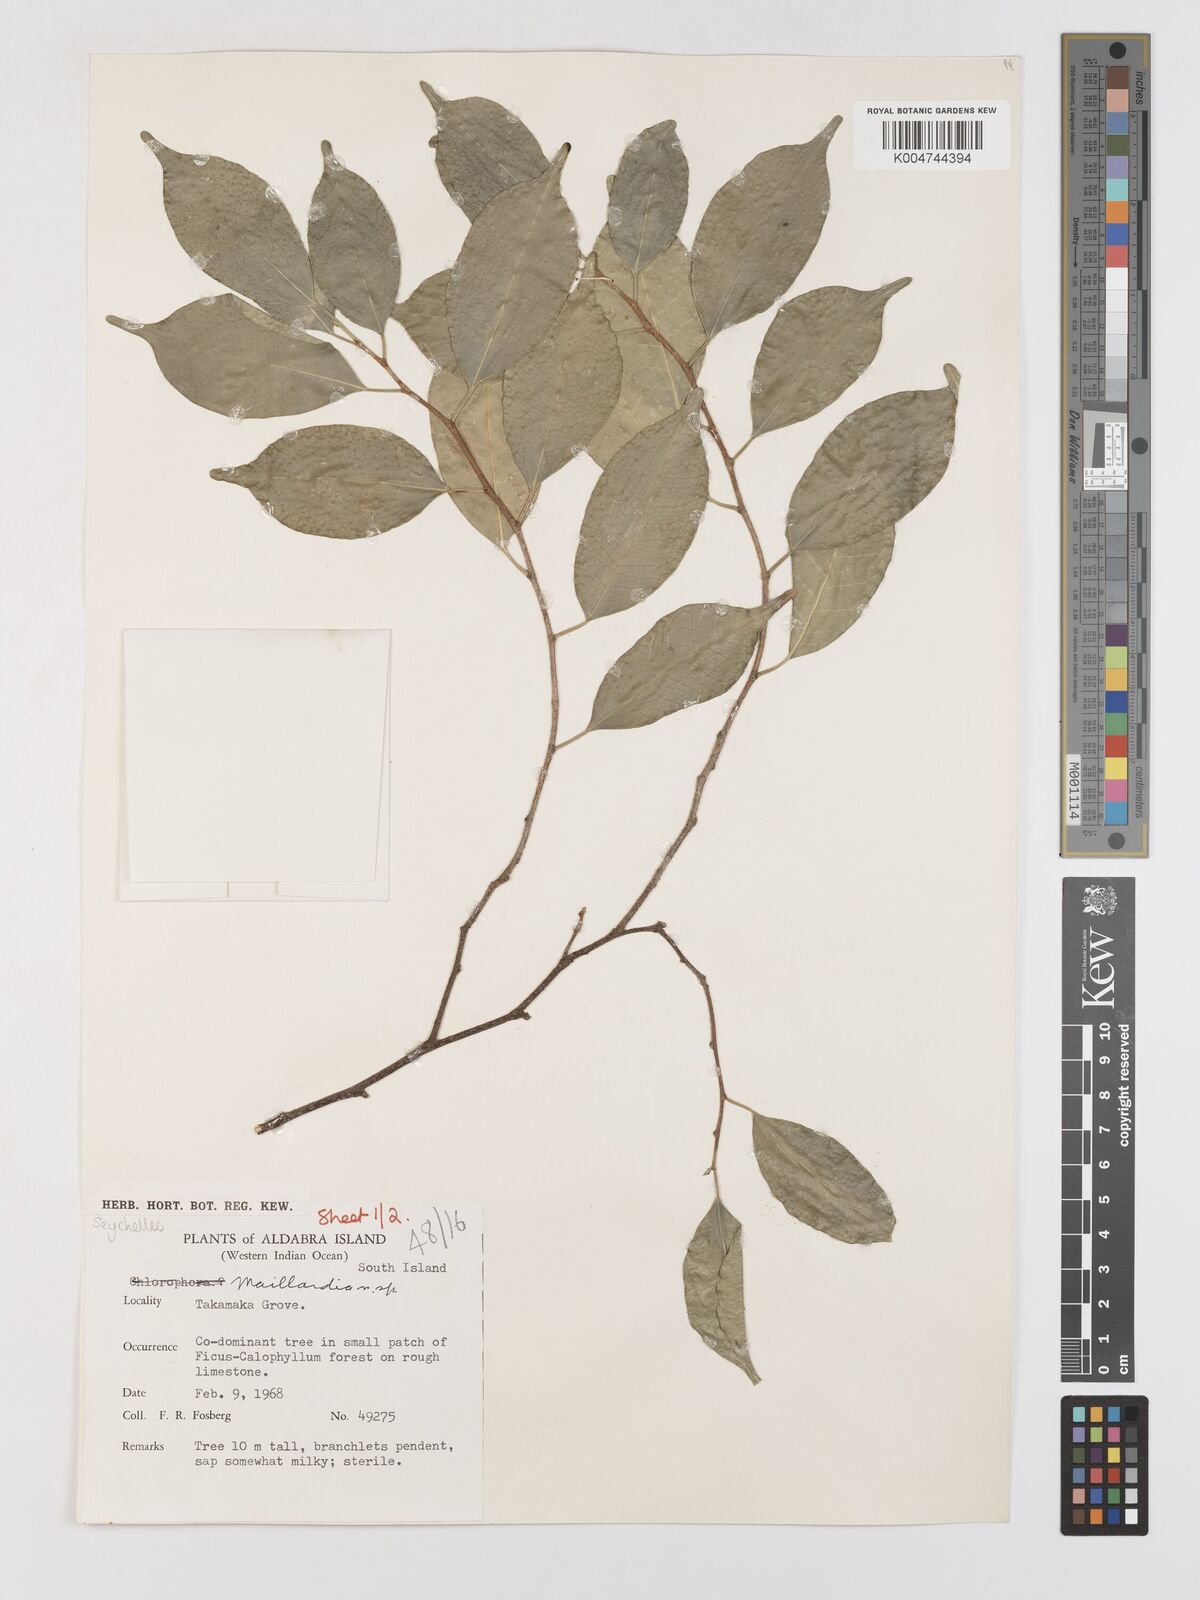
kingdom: Plantae
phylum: Tracheophyta
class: Magnoliopsida
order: Rosales
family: Moraceae
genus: Maillardia
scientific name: Maillardia montana
